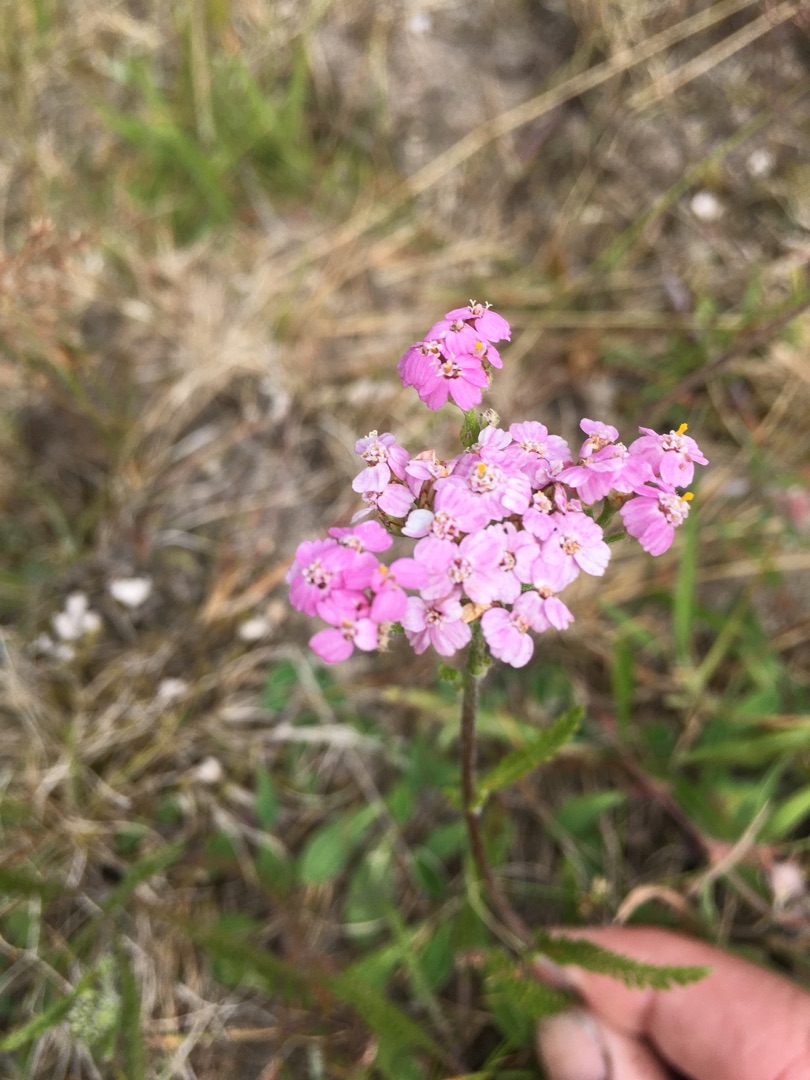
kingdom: Plantae
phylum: Tracheophyta
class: Magnoliopsida
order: Asterales
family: Asteraceae
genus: Achillea
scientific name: Achillea millefolium
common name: Almindelig røllike
